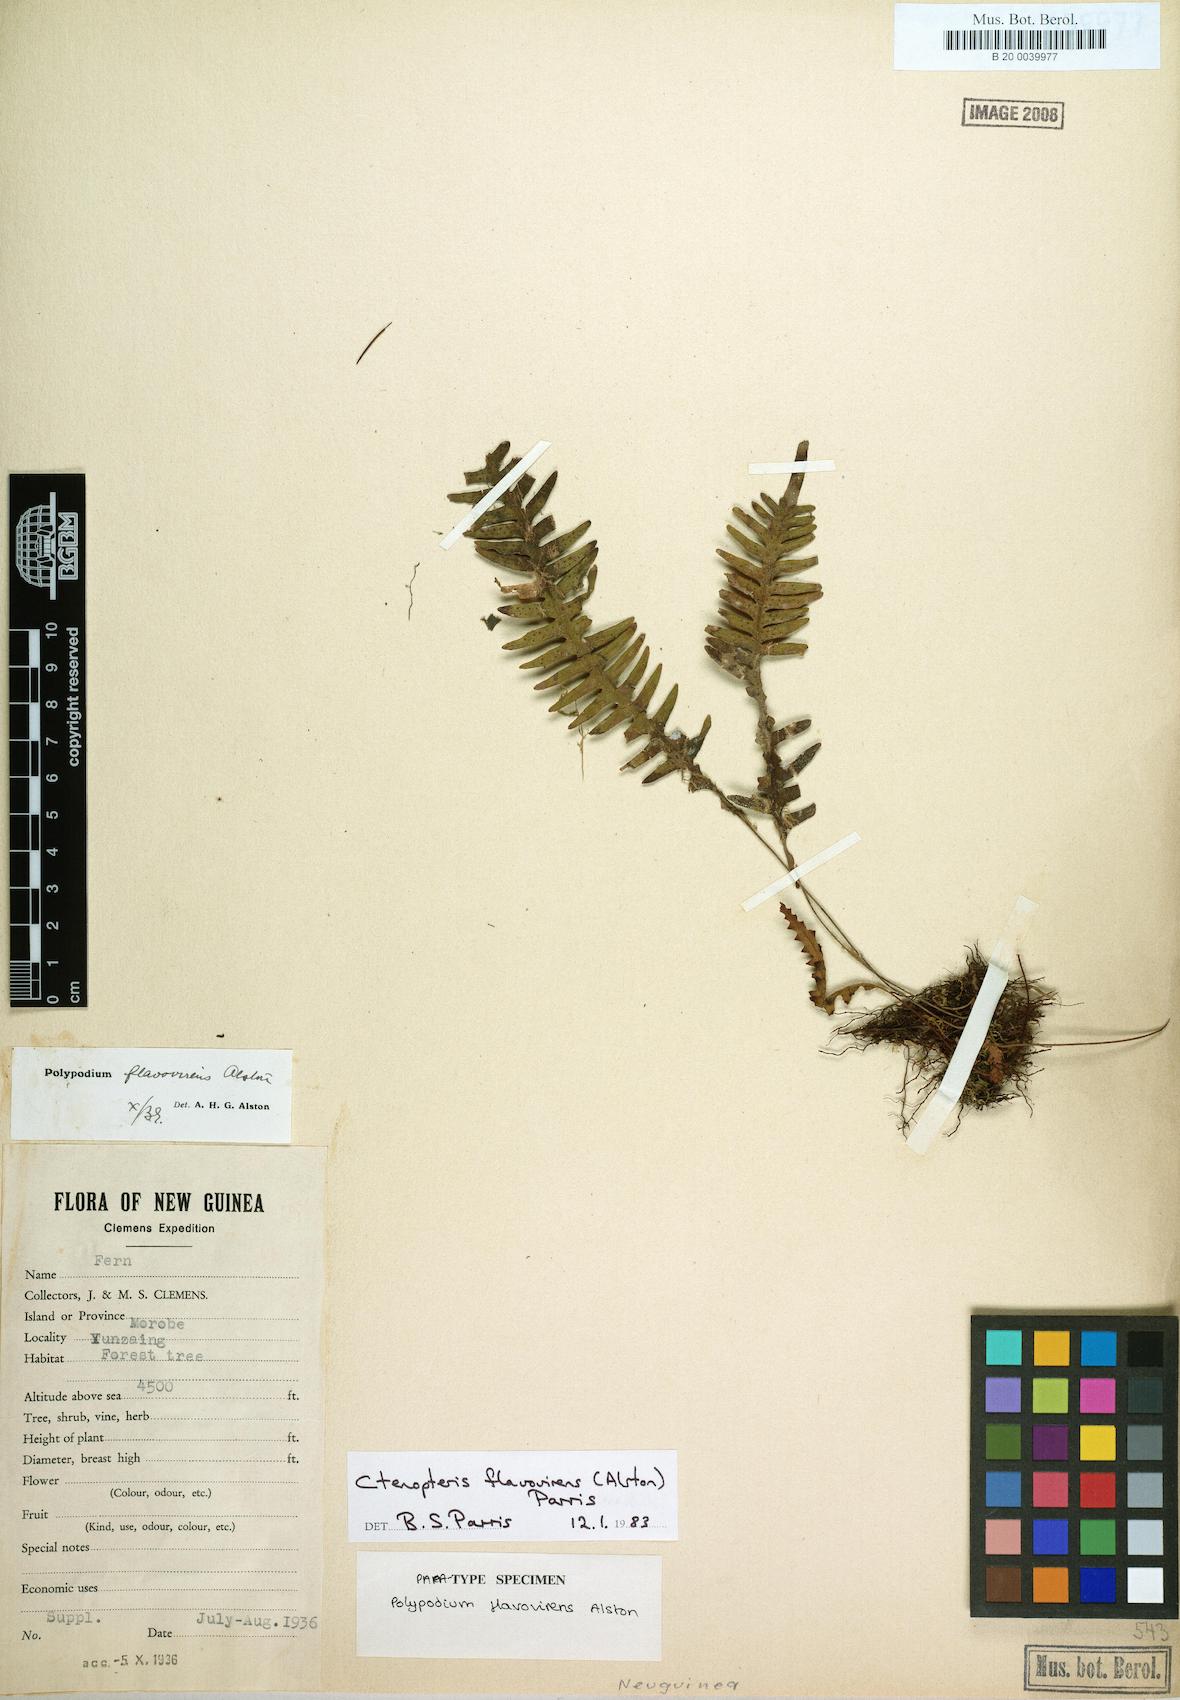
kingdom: Plantae
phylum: Tracheophyta
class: Polypodiopsida
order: Polypodiales
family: Polypodiaceae
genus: Oreogrammitis
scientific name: Oreogrammitis flavovirens
